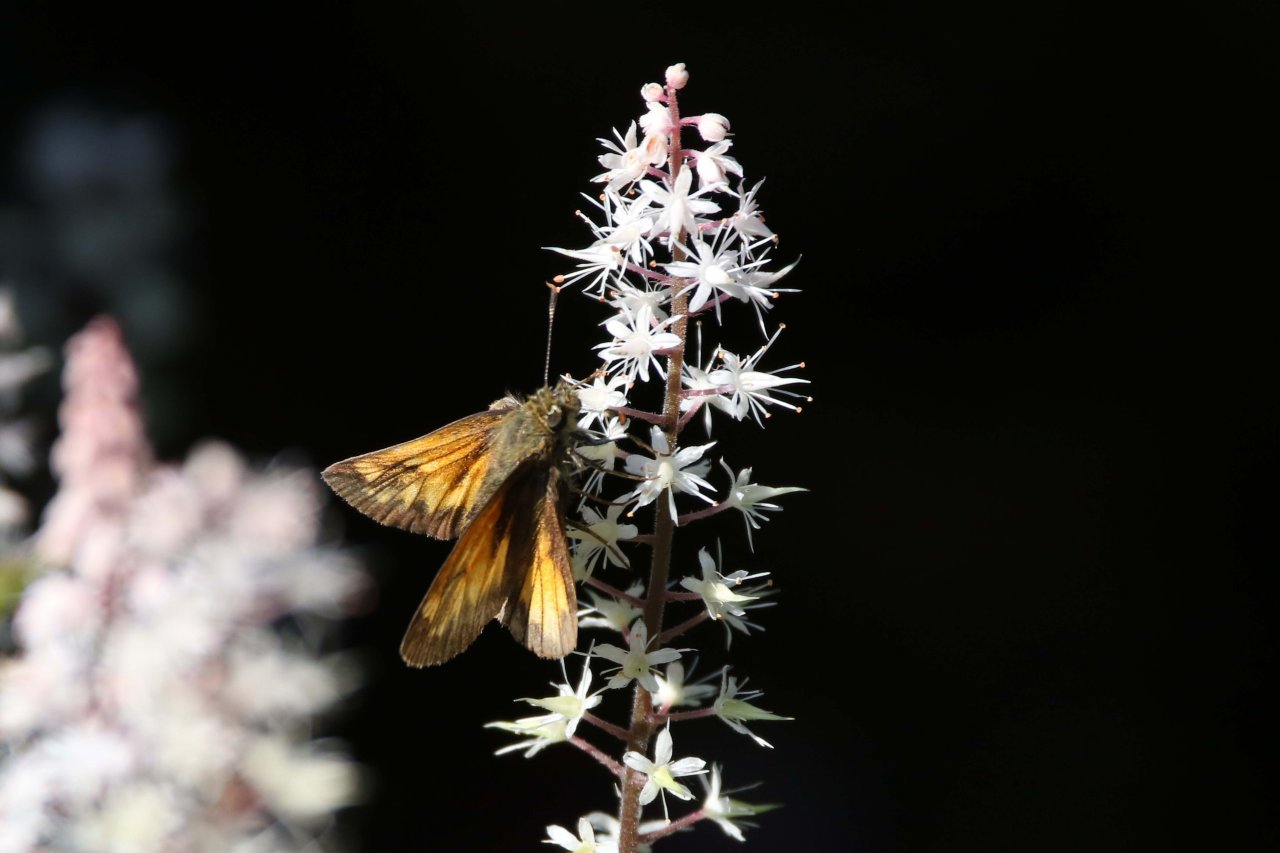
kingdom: Animalia
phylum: Arthropoda
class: Insecta
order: Lepidoptera
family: Hesperiidae
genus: Lon
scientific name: Lon hobomok
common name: Hobomok Skipper
